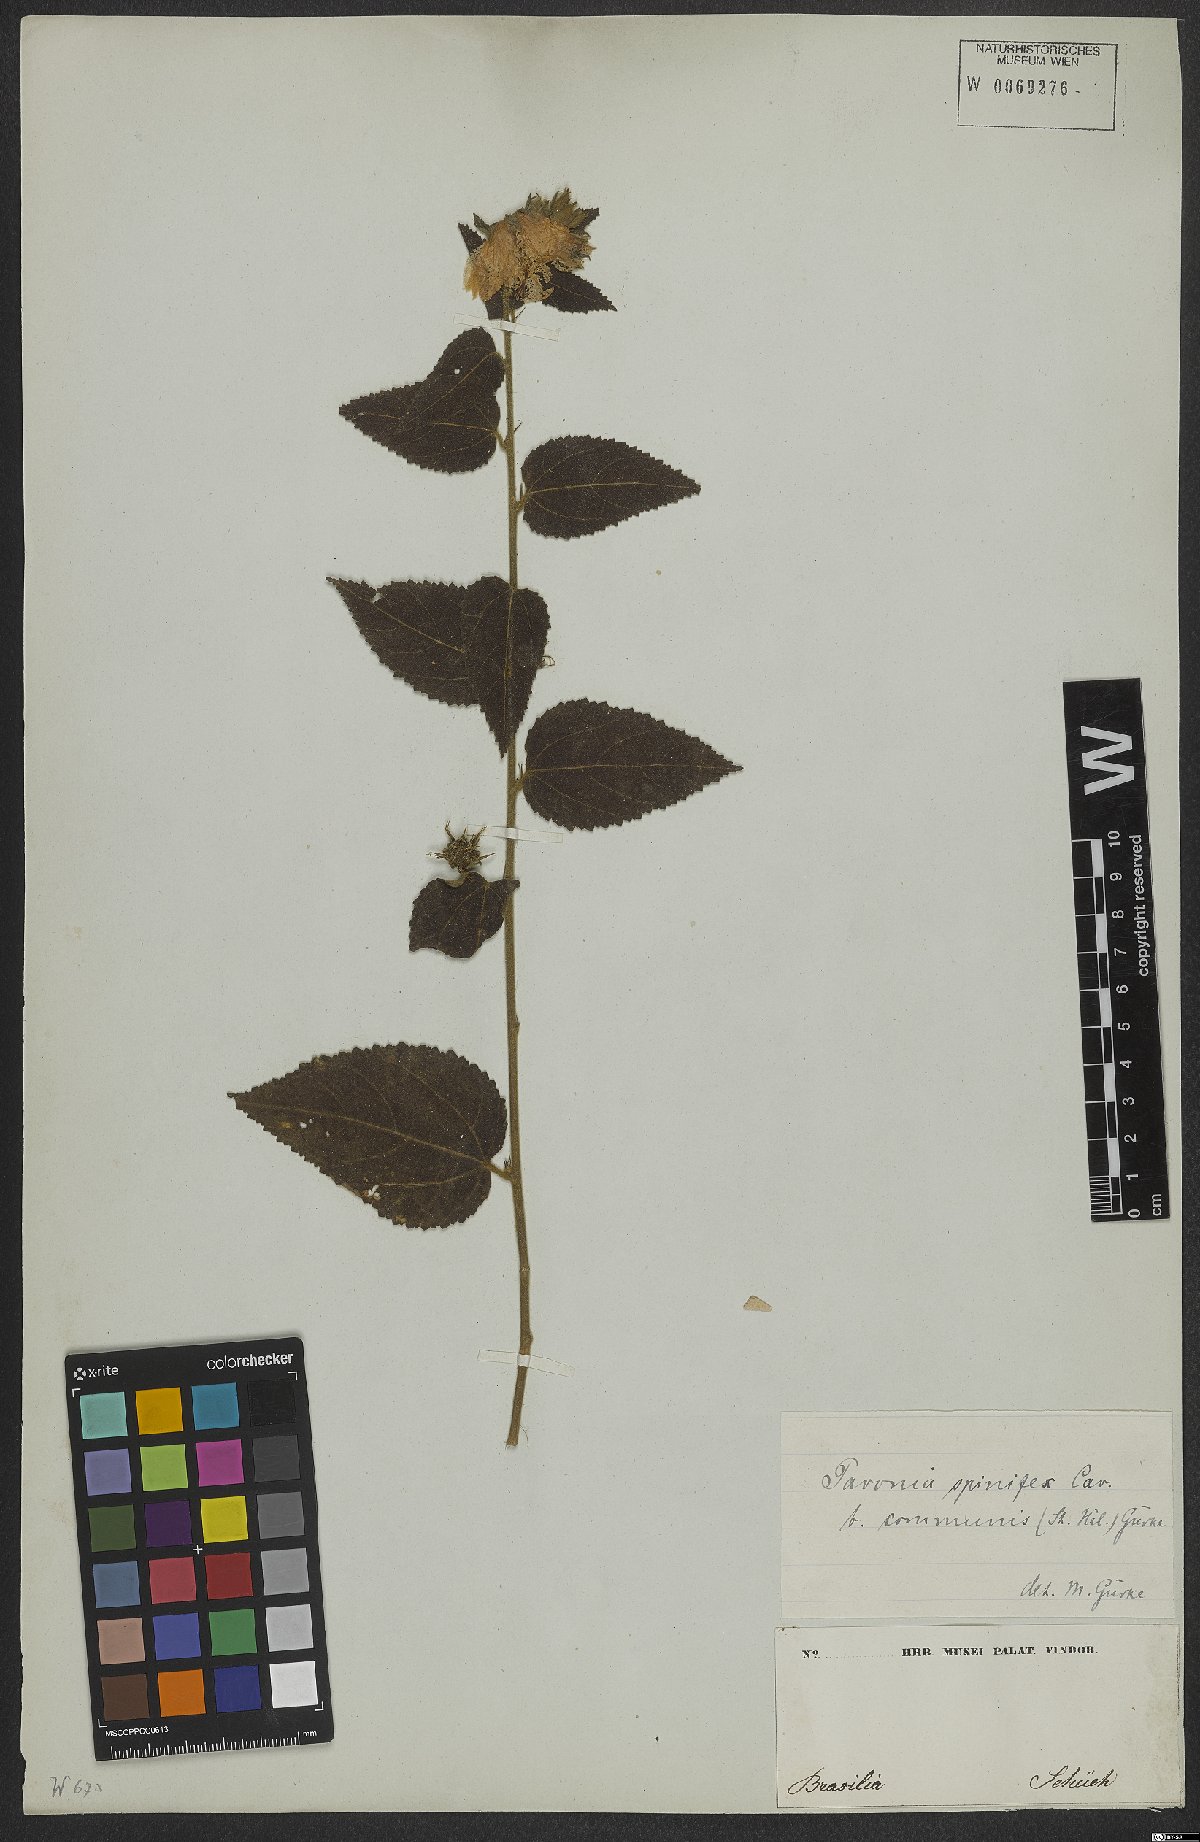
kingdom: Plantae
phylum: Tracheophyta
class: Magnoliopsida
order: Malvales
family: Malvaceae
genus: Pavonia
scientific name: Pavonia communis
